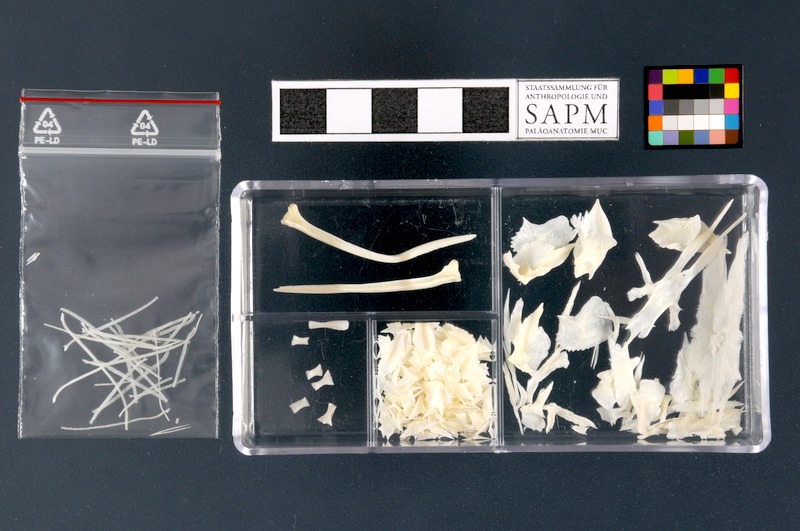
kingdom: Animalia
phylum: Chordata
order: Acipenseriformes
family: Acipenseridae
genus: Acipenser
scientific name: Acipenser ruthenus
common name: Sterlet
